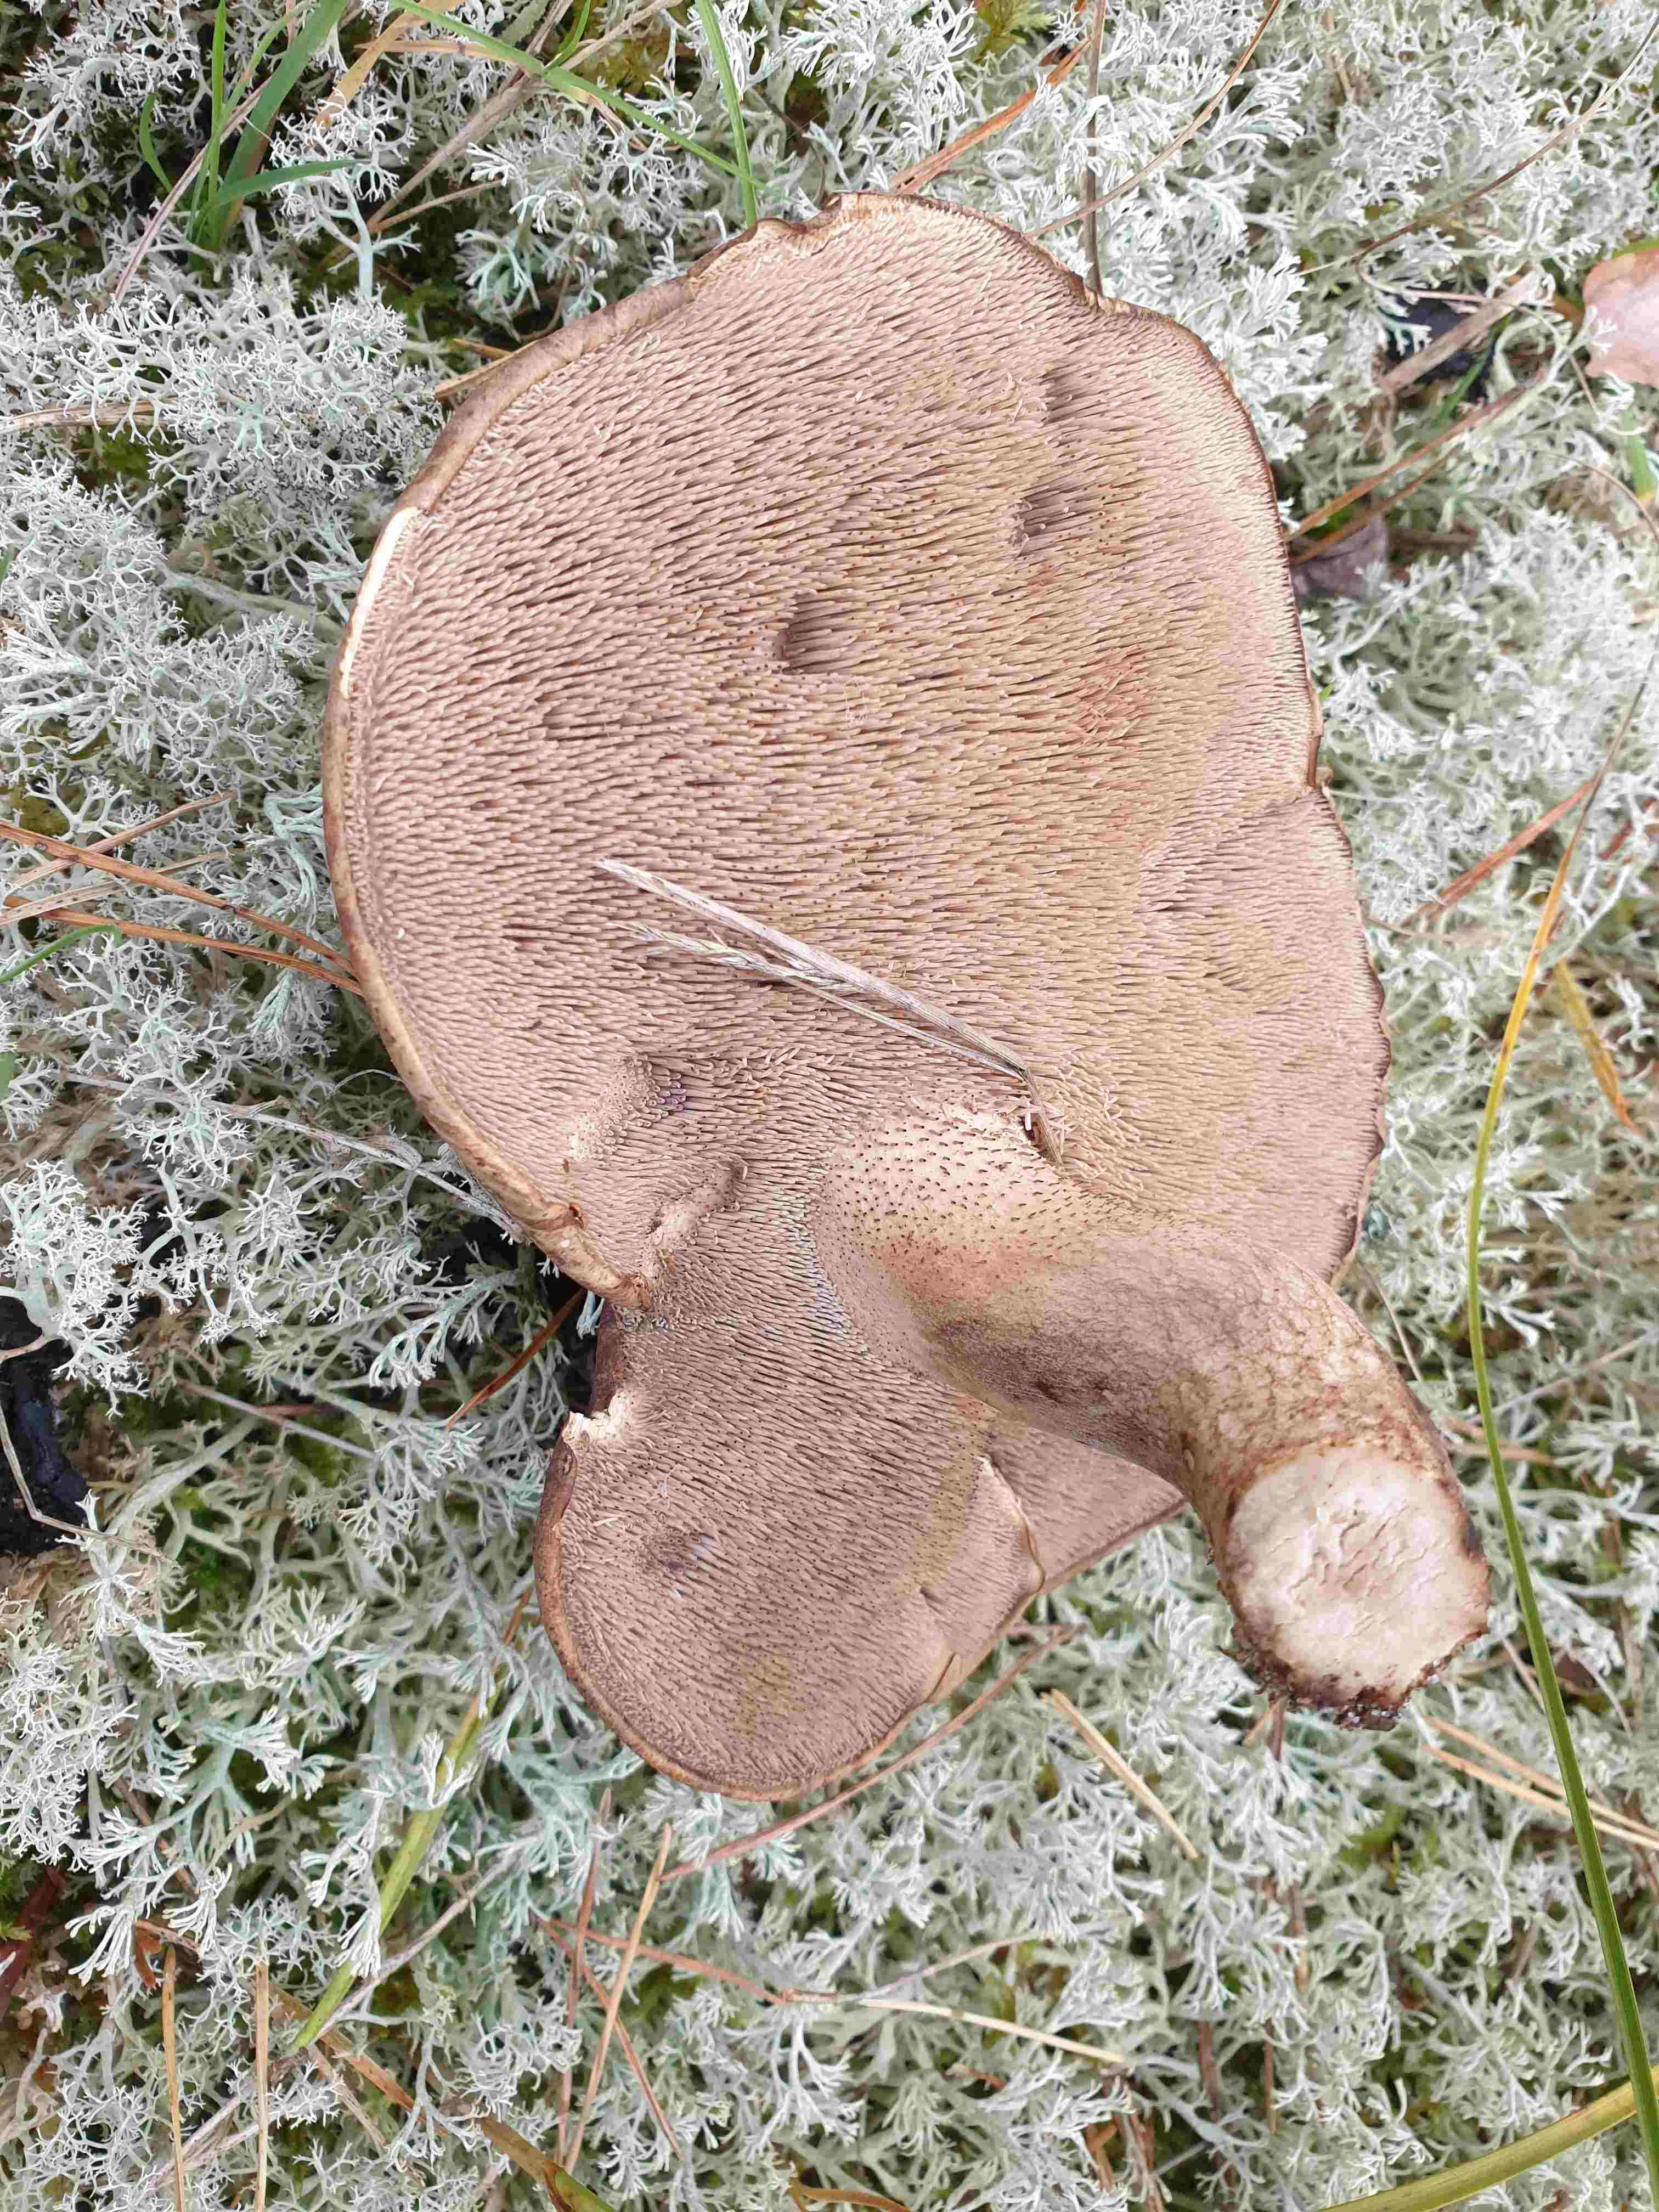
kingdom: Fungi
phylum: Basidiomycota
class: Agaricomycetes
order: Thelephorales
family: Bankeraceae
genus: Sarcodon
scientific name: Sarcodon squamosus
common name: småskællet kødpigsvamp
